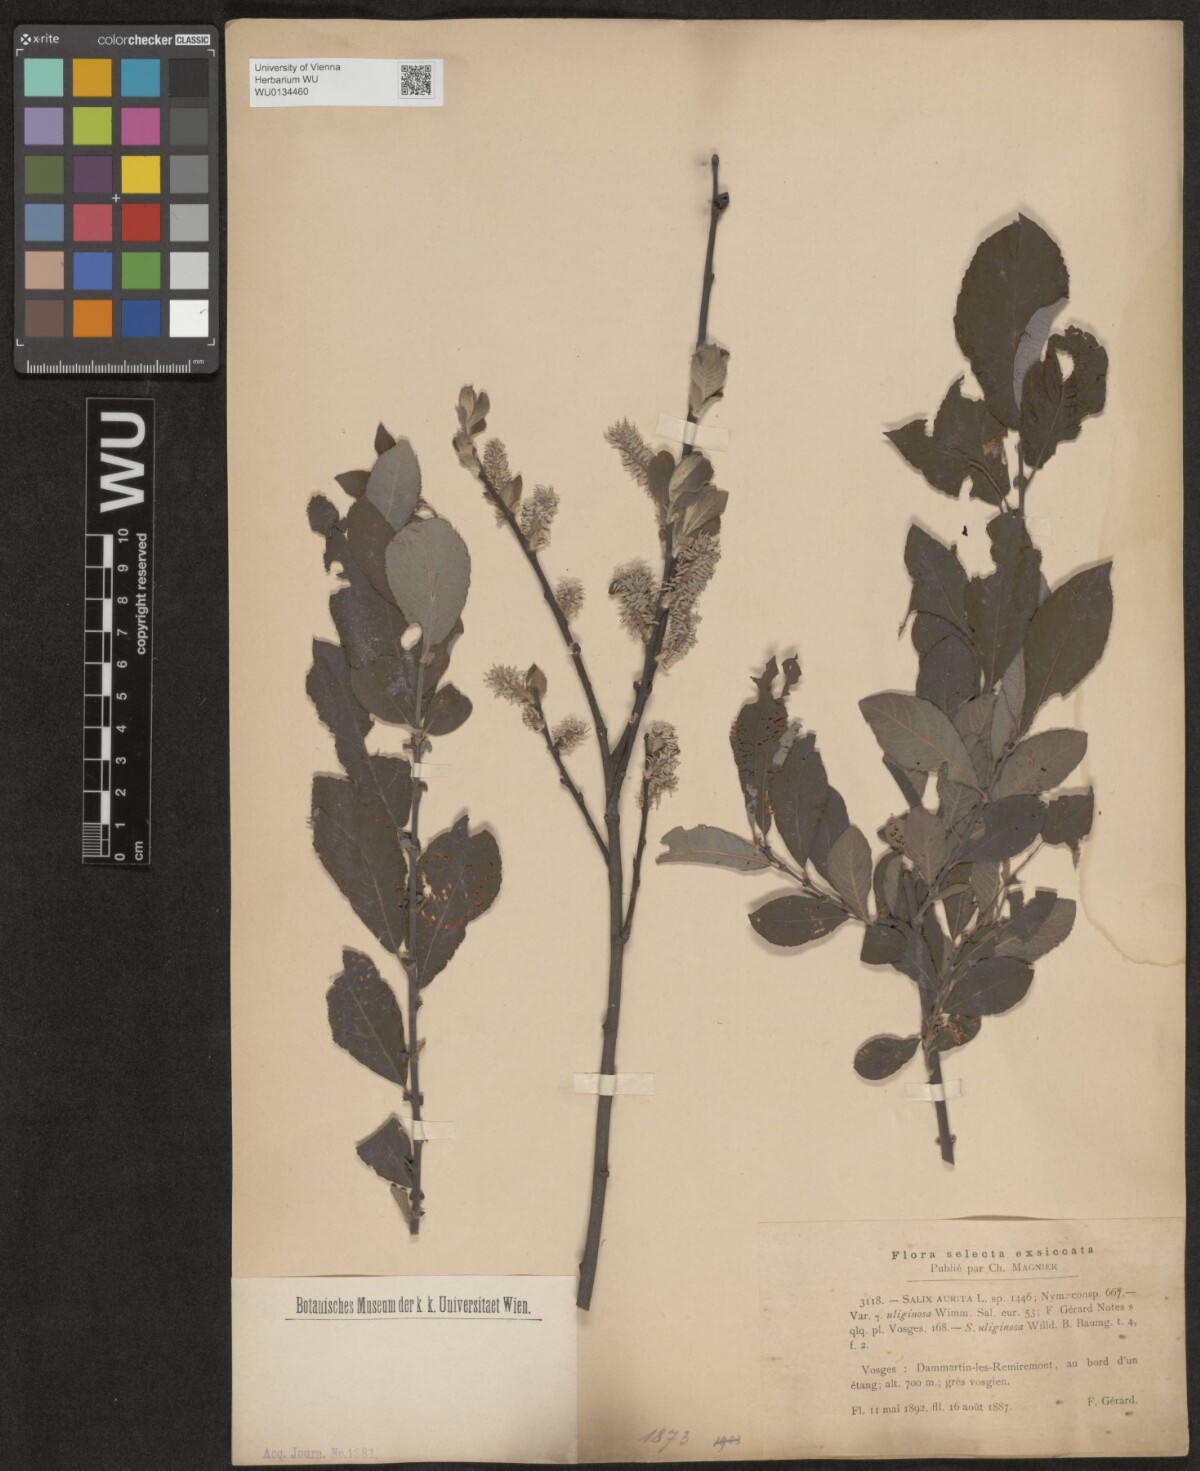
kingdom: Plantae
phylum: Tracheophyta
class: Magnoliopsida
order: Malpighiales
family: Salicaceae
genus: Salix
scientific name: Salix aurita
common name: Eared willow
